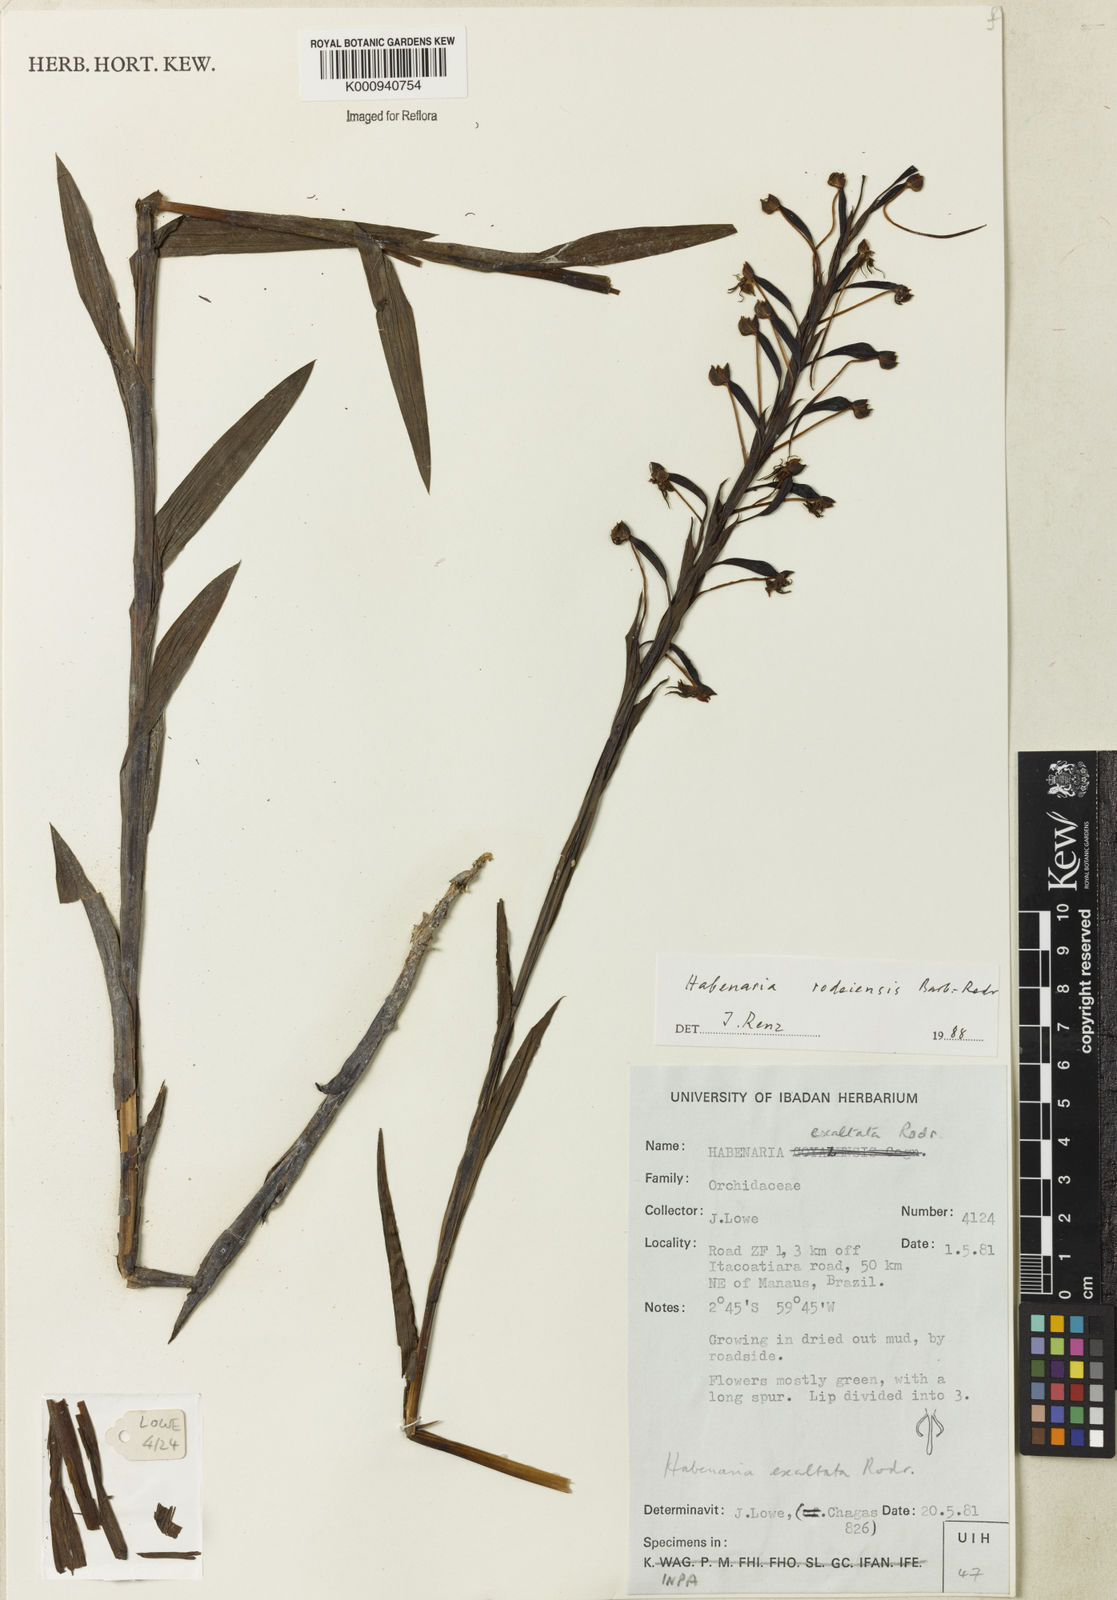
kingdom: Plantae
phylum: Tracheophyta
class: Liliopsida
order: Asparagales
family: Orchidaceae
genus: Habenaria
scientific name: Habenaria rodeiensis
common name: Bog orchid
